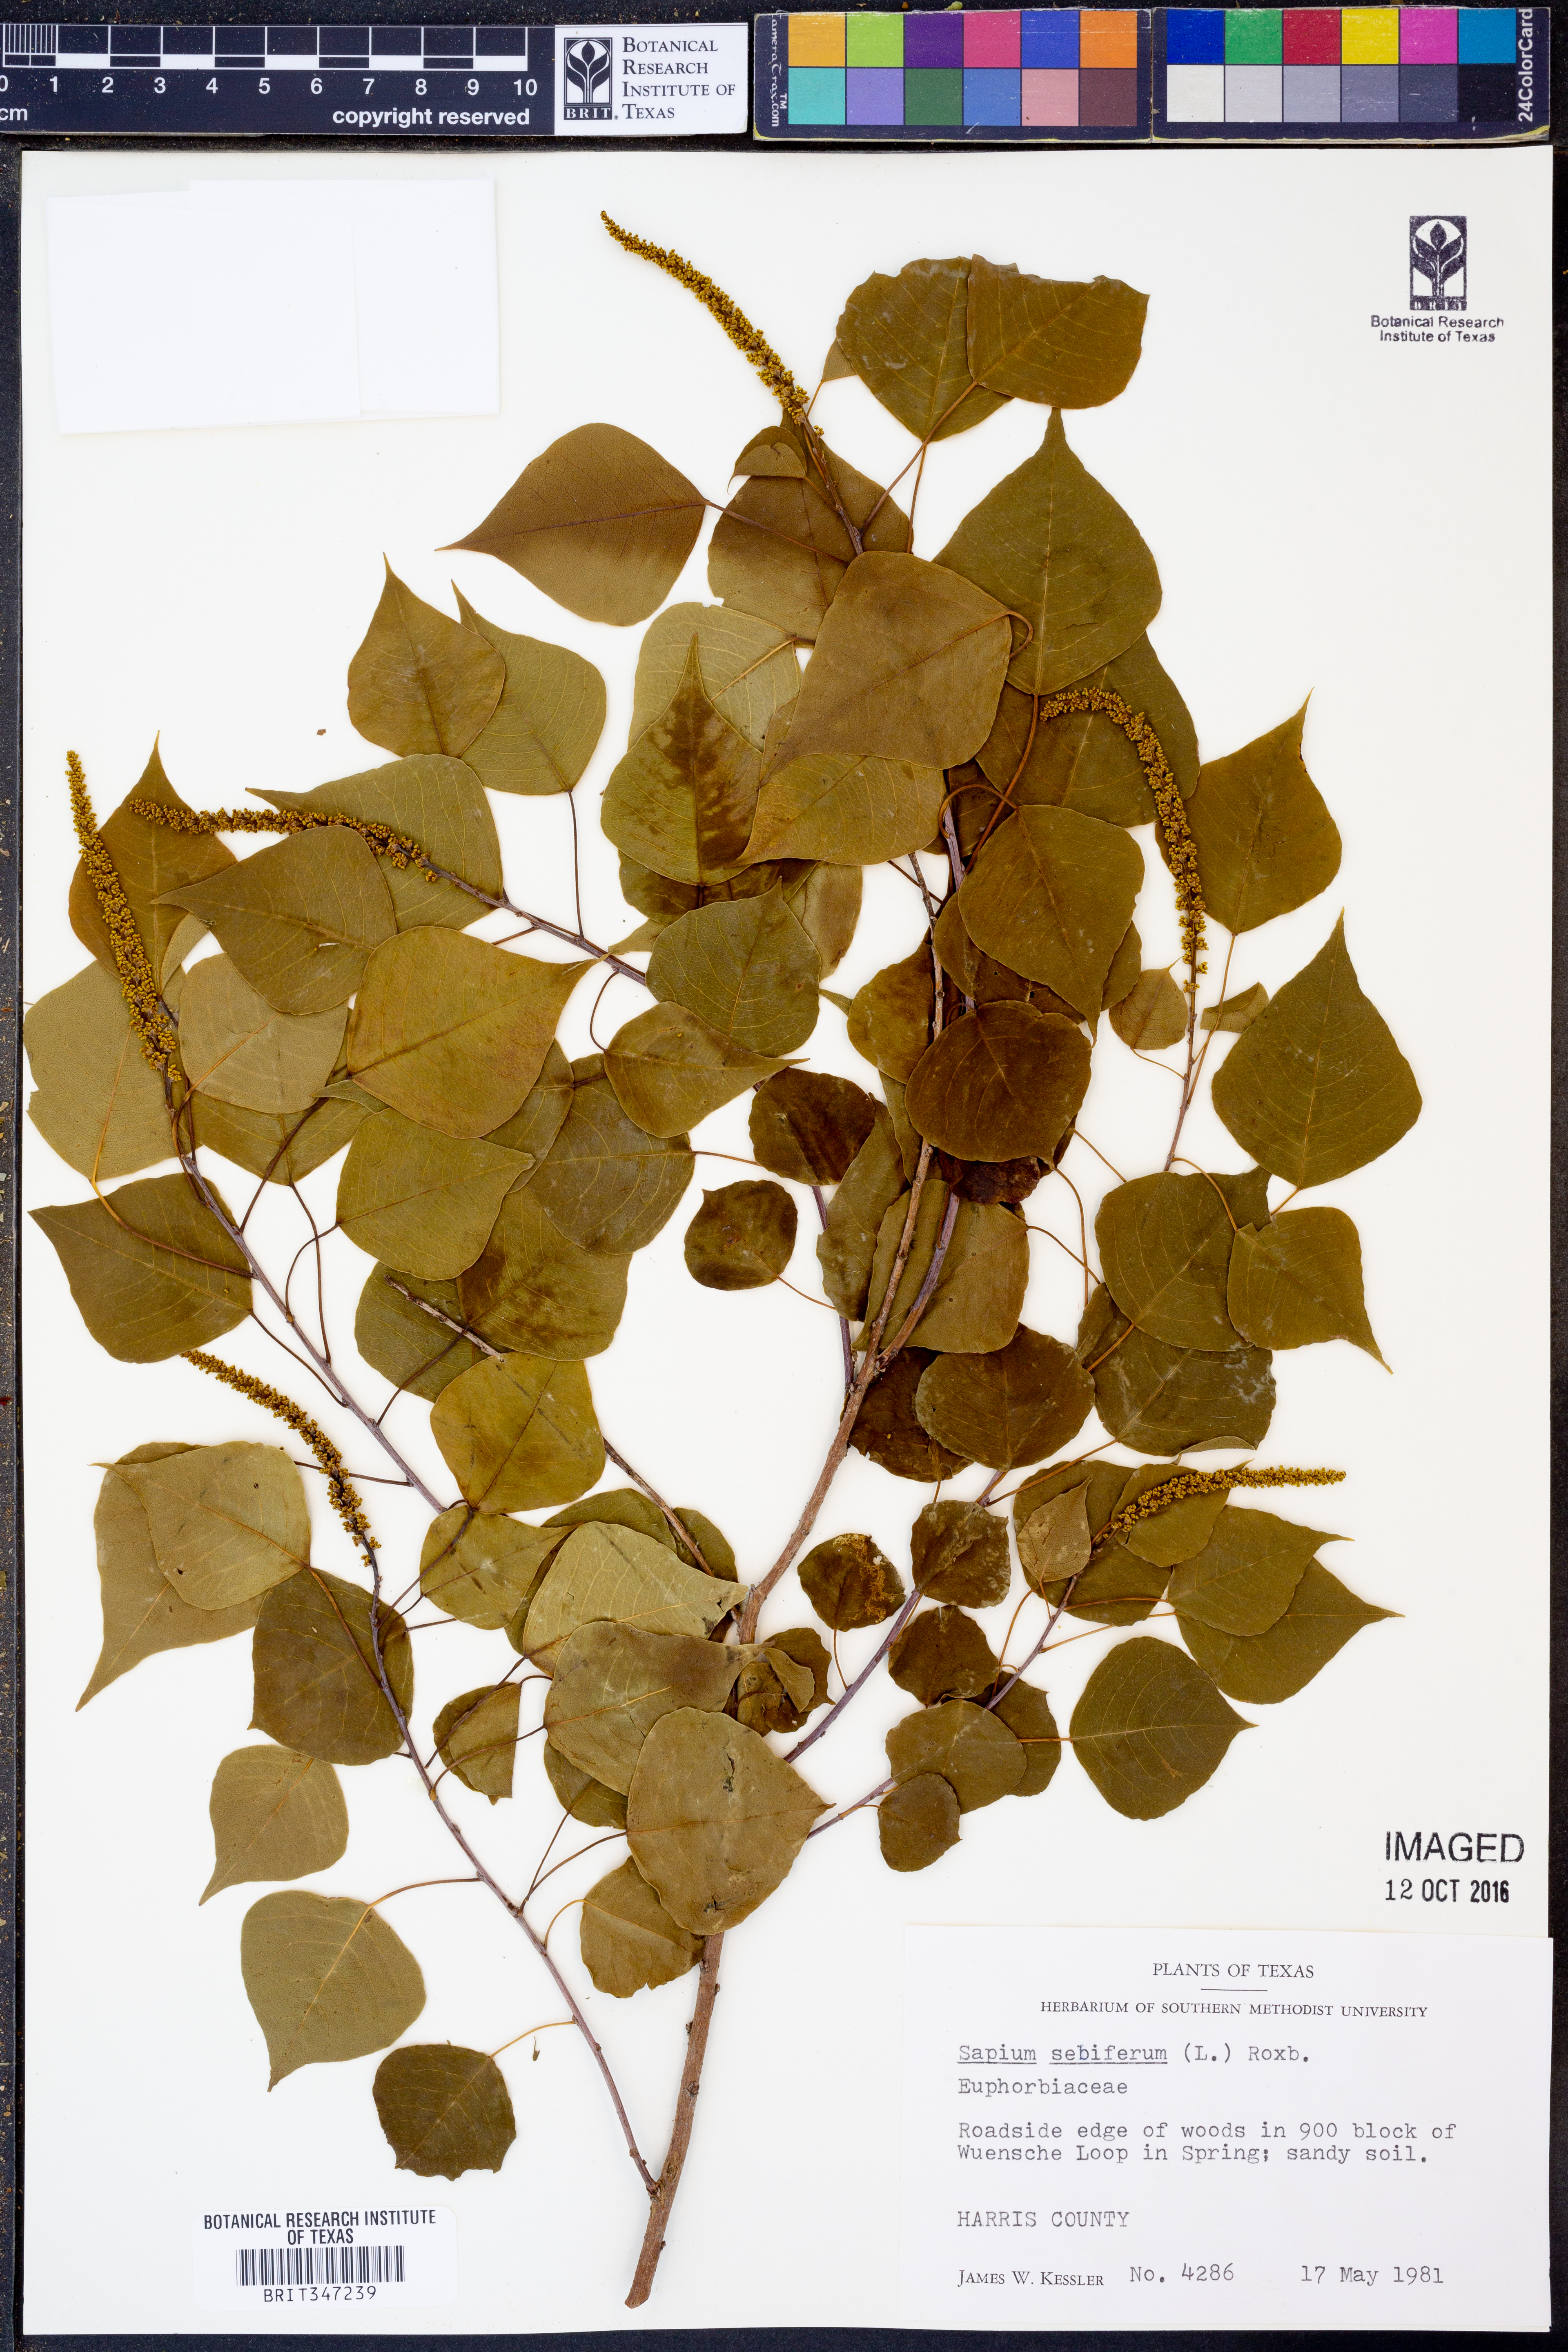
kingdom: Plantae
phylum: Tracheophyta
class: Magnoliopsida
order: Malpighiales
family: Euphorbiaceae
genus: Triadica
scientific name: Triadica sebifera
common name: Chinese tallow
